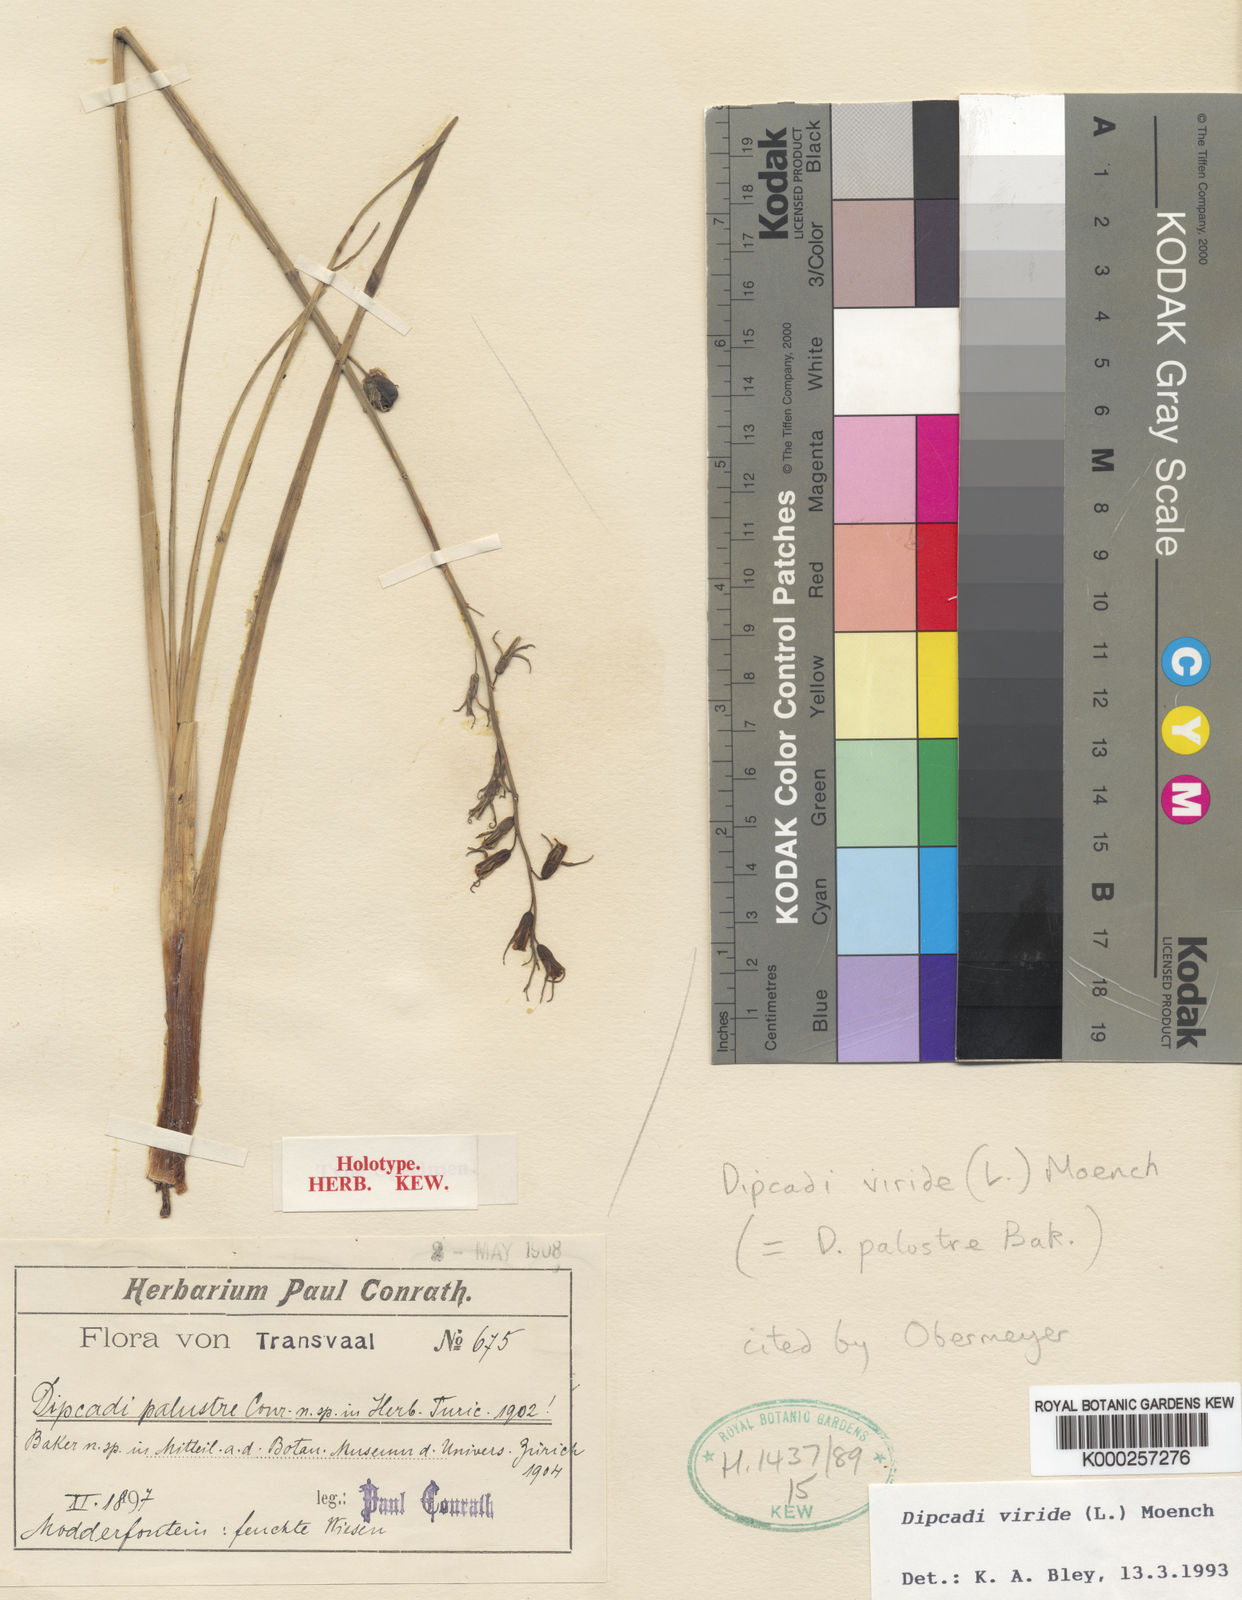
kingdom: Plantae
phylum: Tracheophyta
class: Liliopsida
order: Asparagales
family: Asparagaceae
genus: Dipcadi
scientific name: Dipcadi viride
